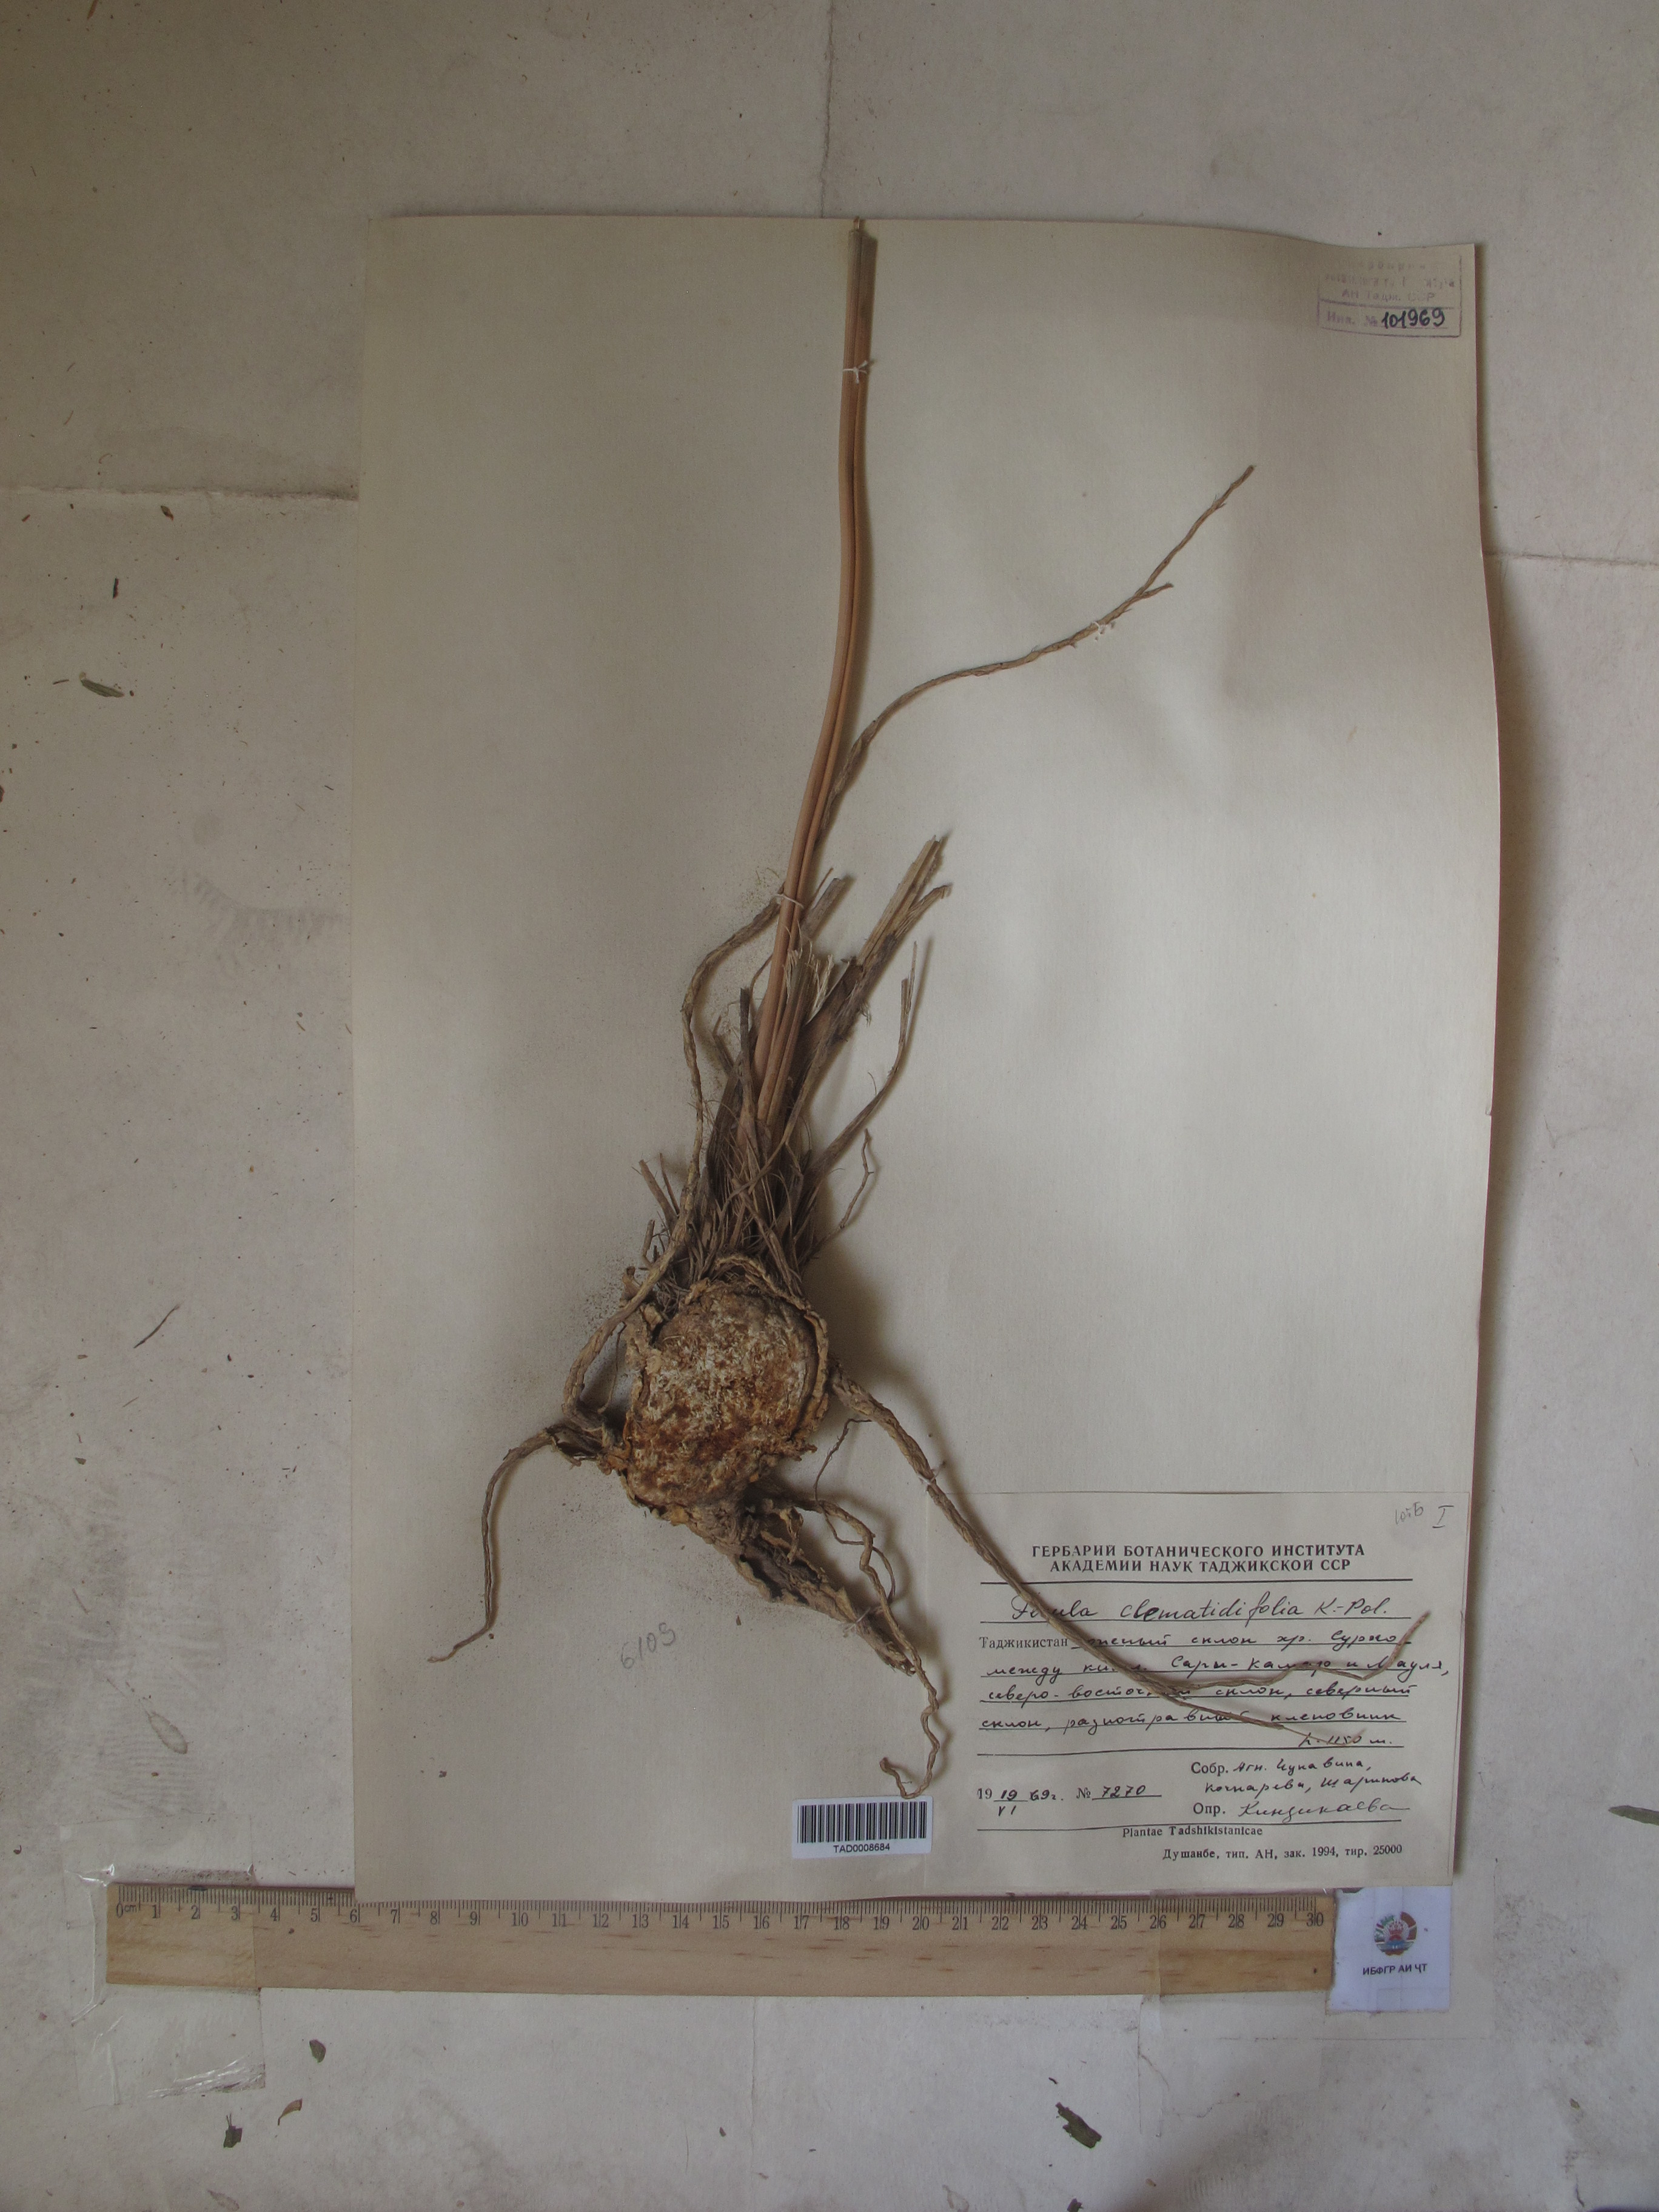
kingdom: Plantae
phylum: Tracheophyta
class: Magnoliopsida
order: Apiales
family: Apiaceae
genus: Ferula
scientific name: Ferula clematidifolia
